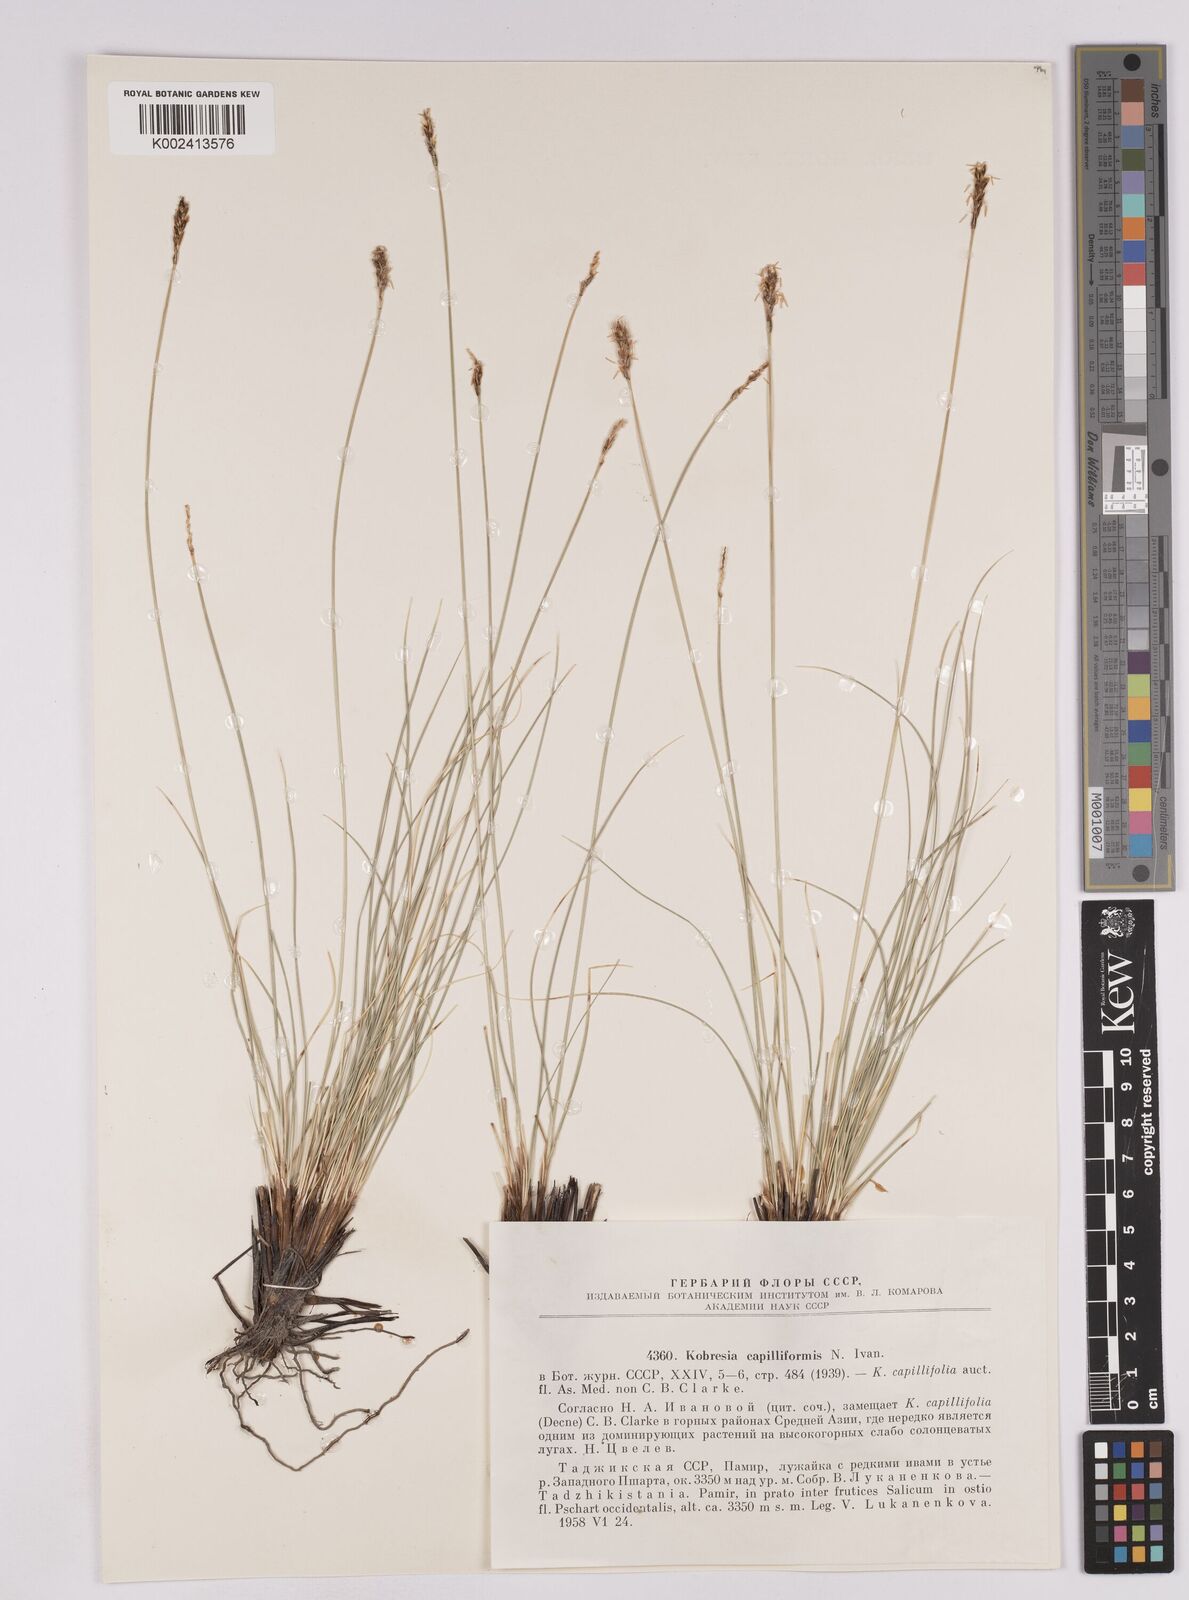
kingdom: Plantae
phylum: Tracheophyta
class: Liliopsida
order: Poales
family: Cyperaceae
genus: Carex
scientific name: Carex capillifolia
